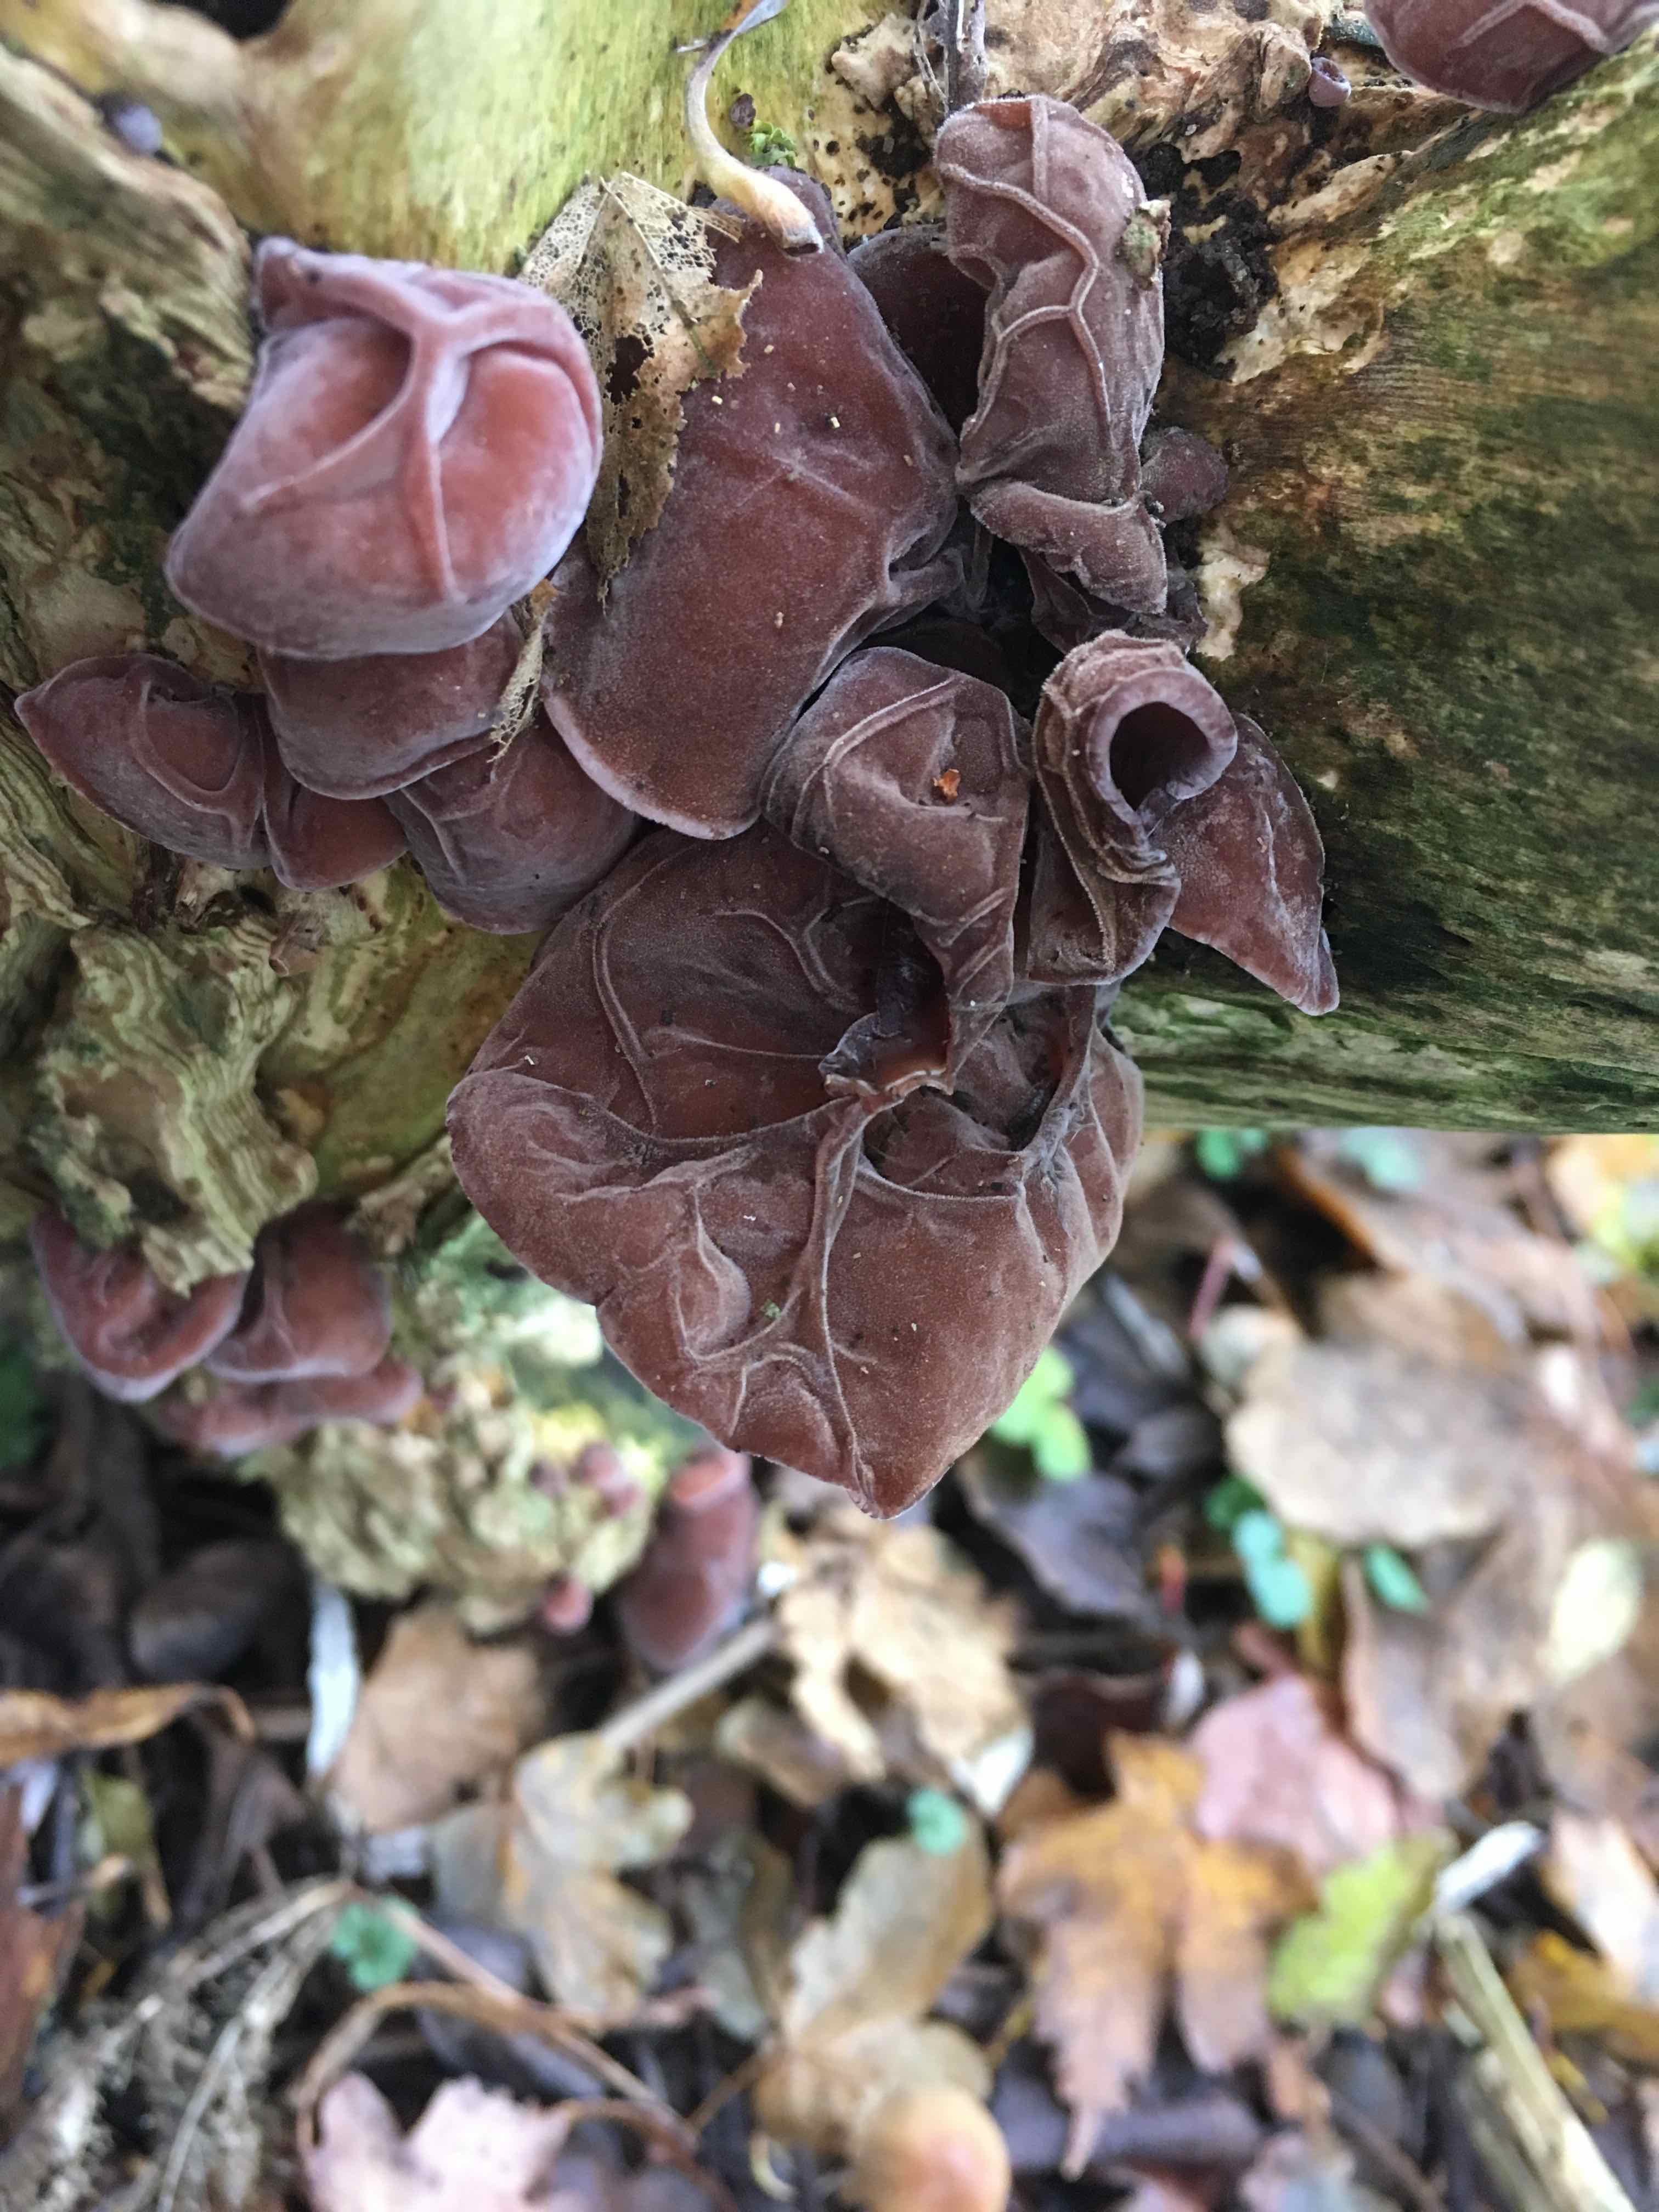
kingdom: Fungi
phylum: Basidiomycota
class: Agaricomycetes
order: Auriculariales
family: Auriculariaceae
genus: Auricularia
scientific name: Auricularia auricula-judae
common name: almindelig judasøre
